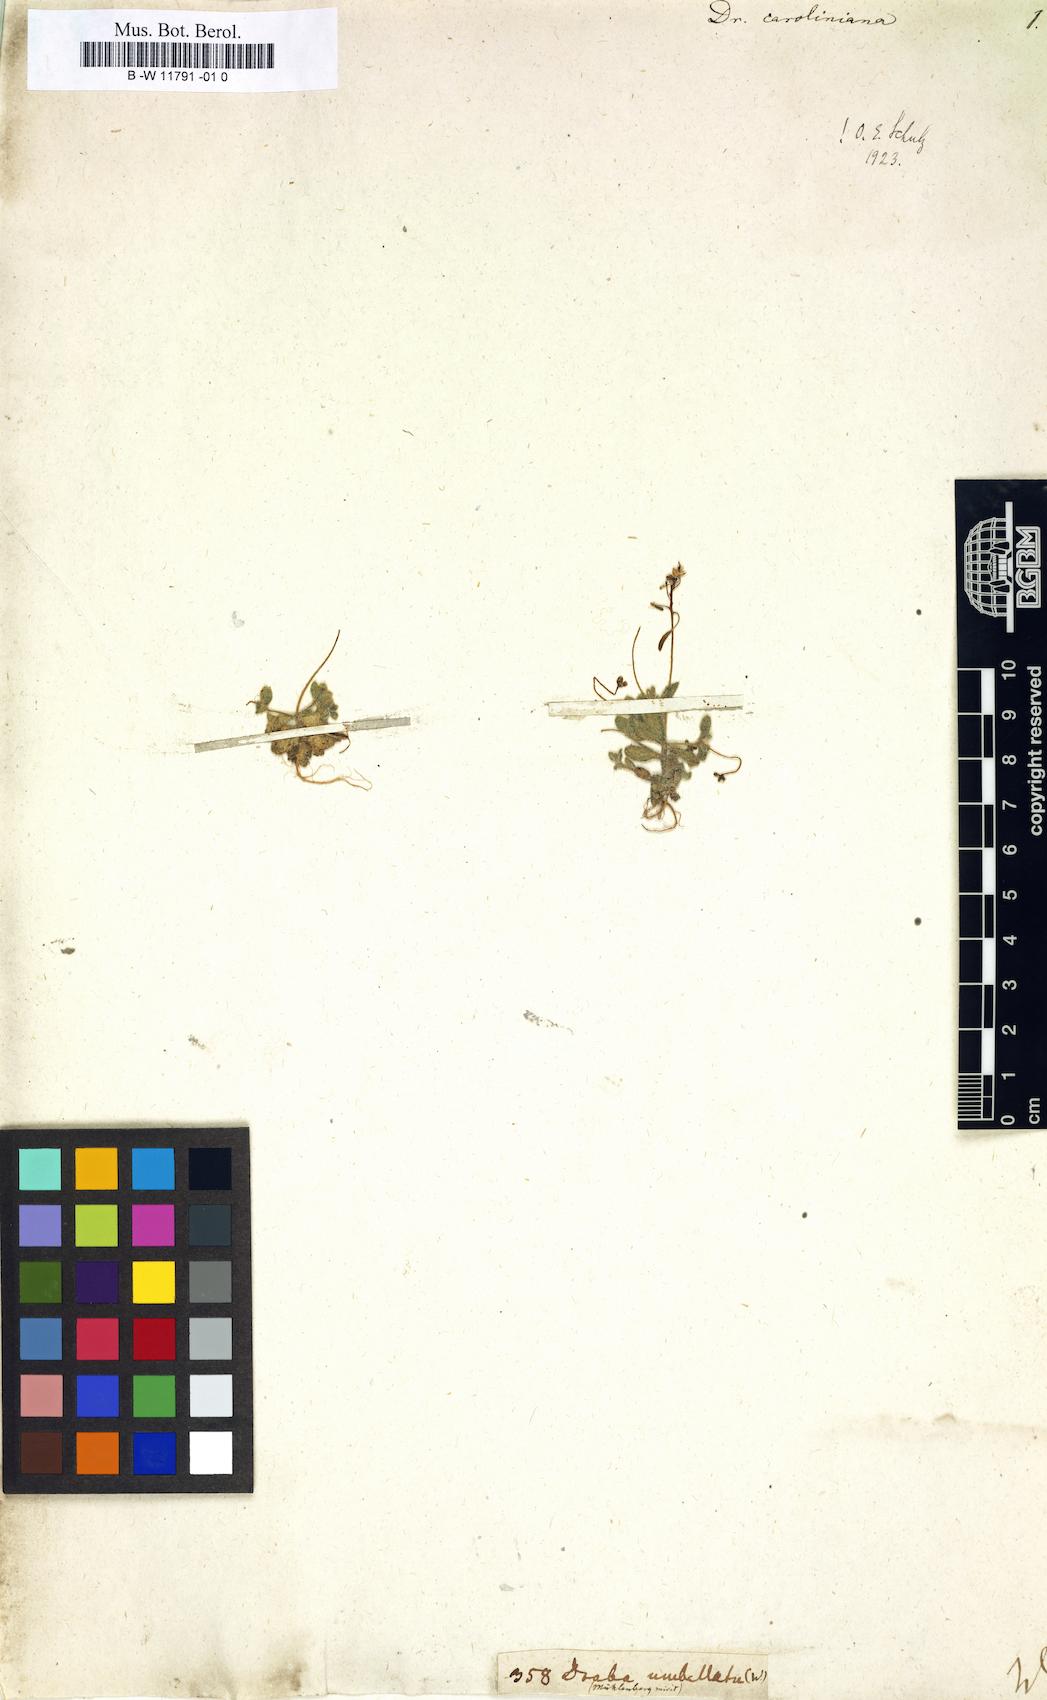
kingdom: Plantae
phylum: Tracheophyta
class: Magnoliopsida
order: Brassicales
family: Brassicaceae
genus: Tomostima
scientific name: Tomostima reptans
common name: Carolina draba
